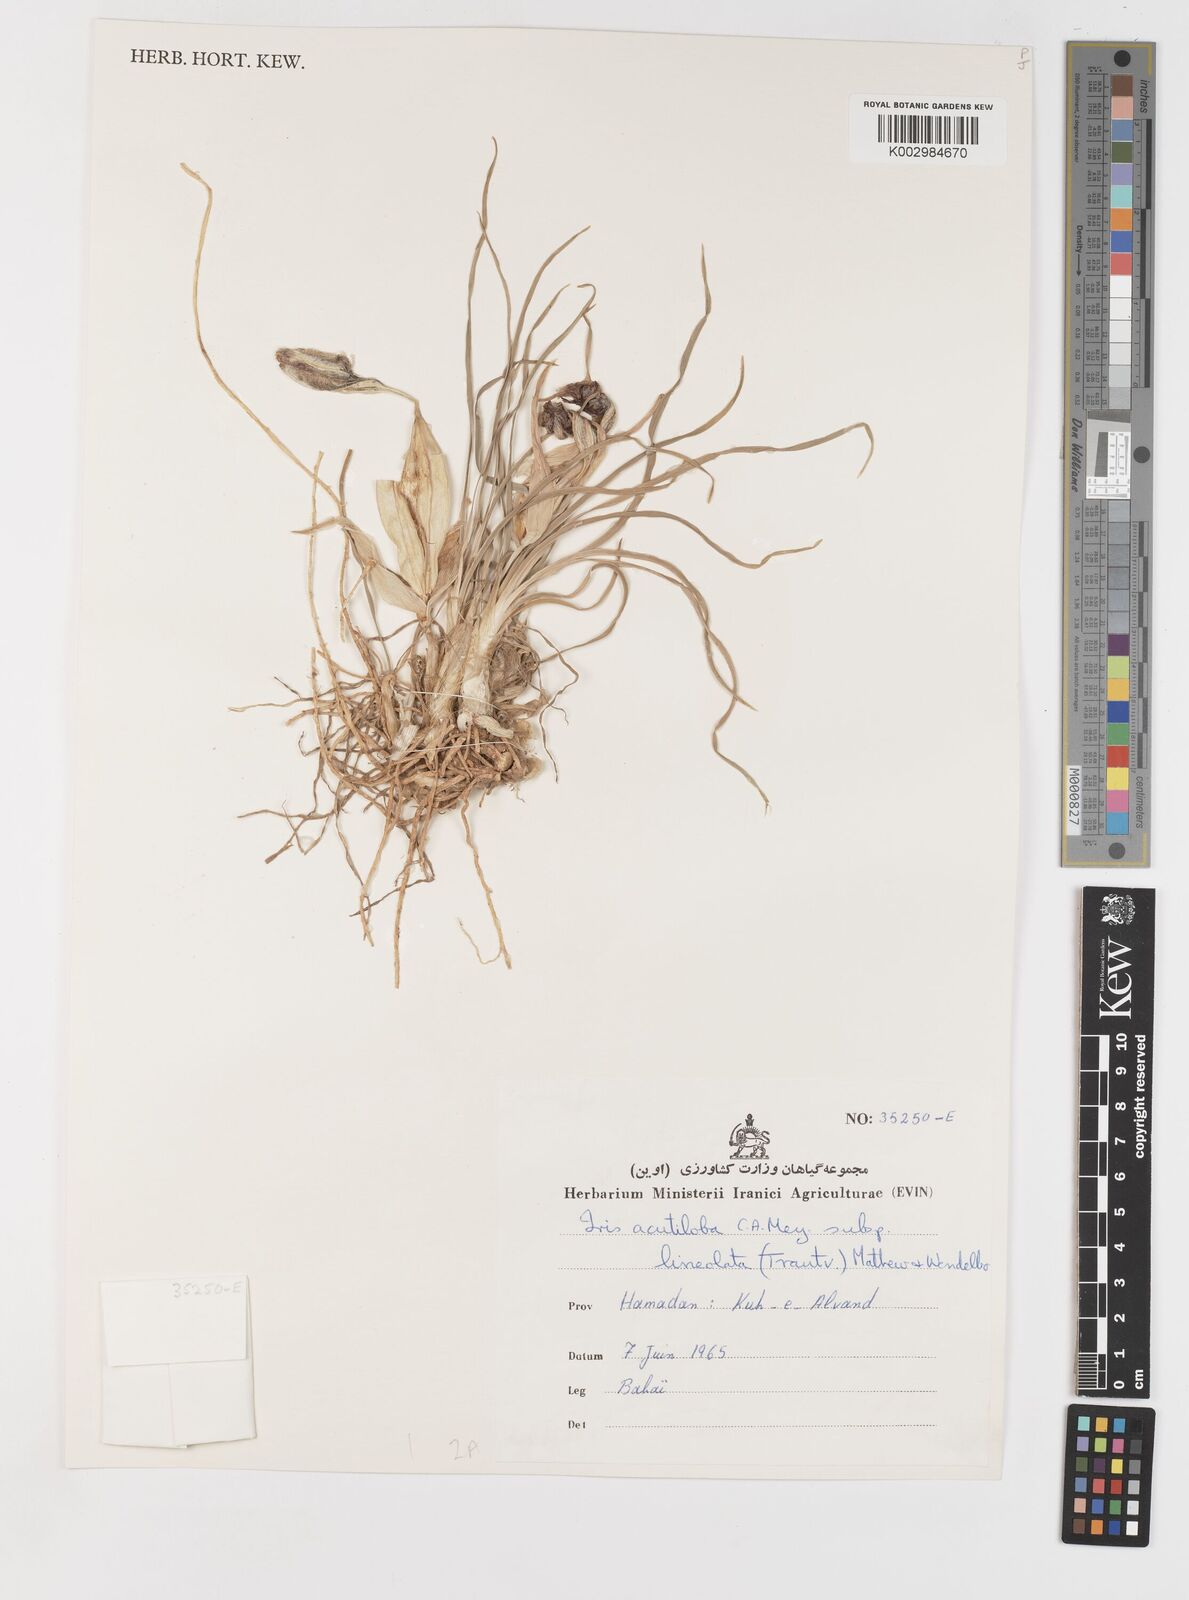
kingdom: Plantae
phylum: Tracheophyta
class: Liliopsida
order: Asparagales
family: Iridaceae
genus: Iris
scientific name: Iris acutiloba
